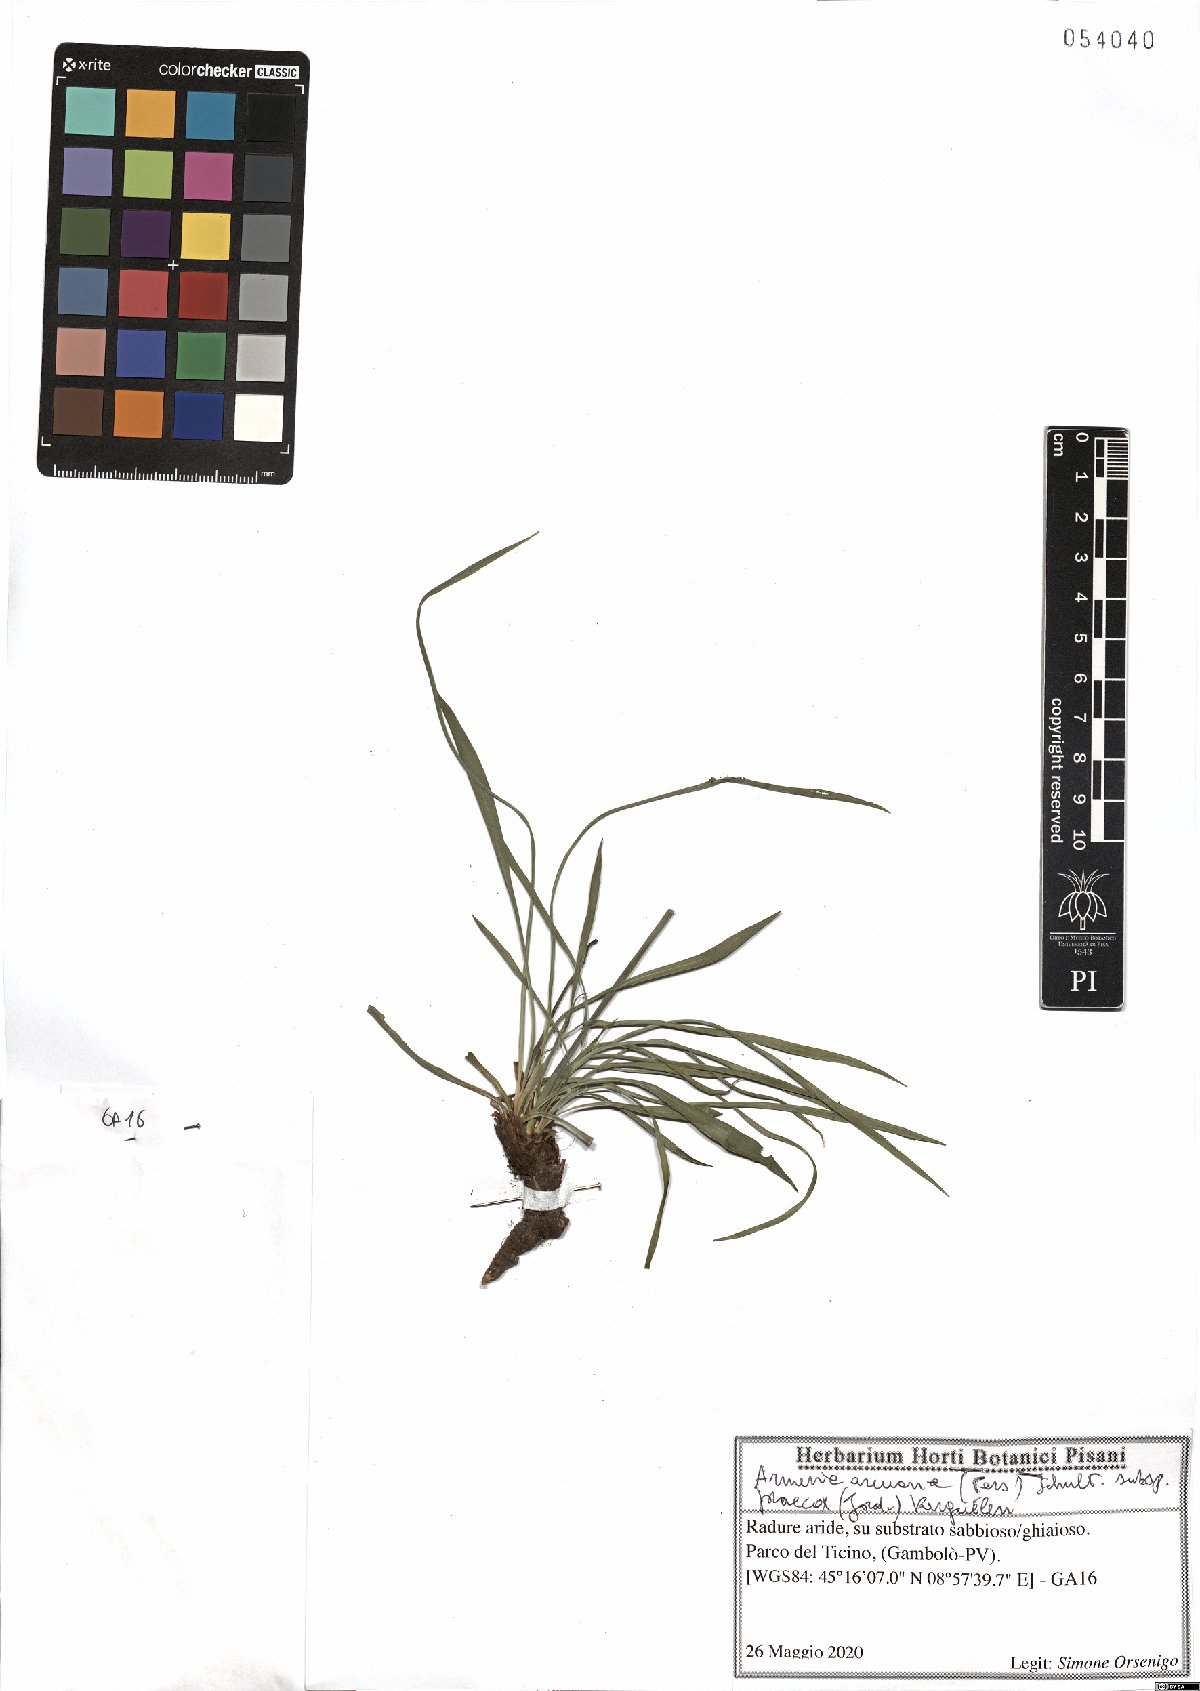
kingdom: Plantae
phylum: Tracheophyta
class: Magnoliopsida
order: Caryophyllales
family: Plumbaginaceae
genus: Armeria
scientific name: Armeria arenaria
